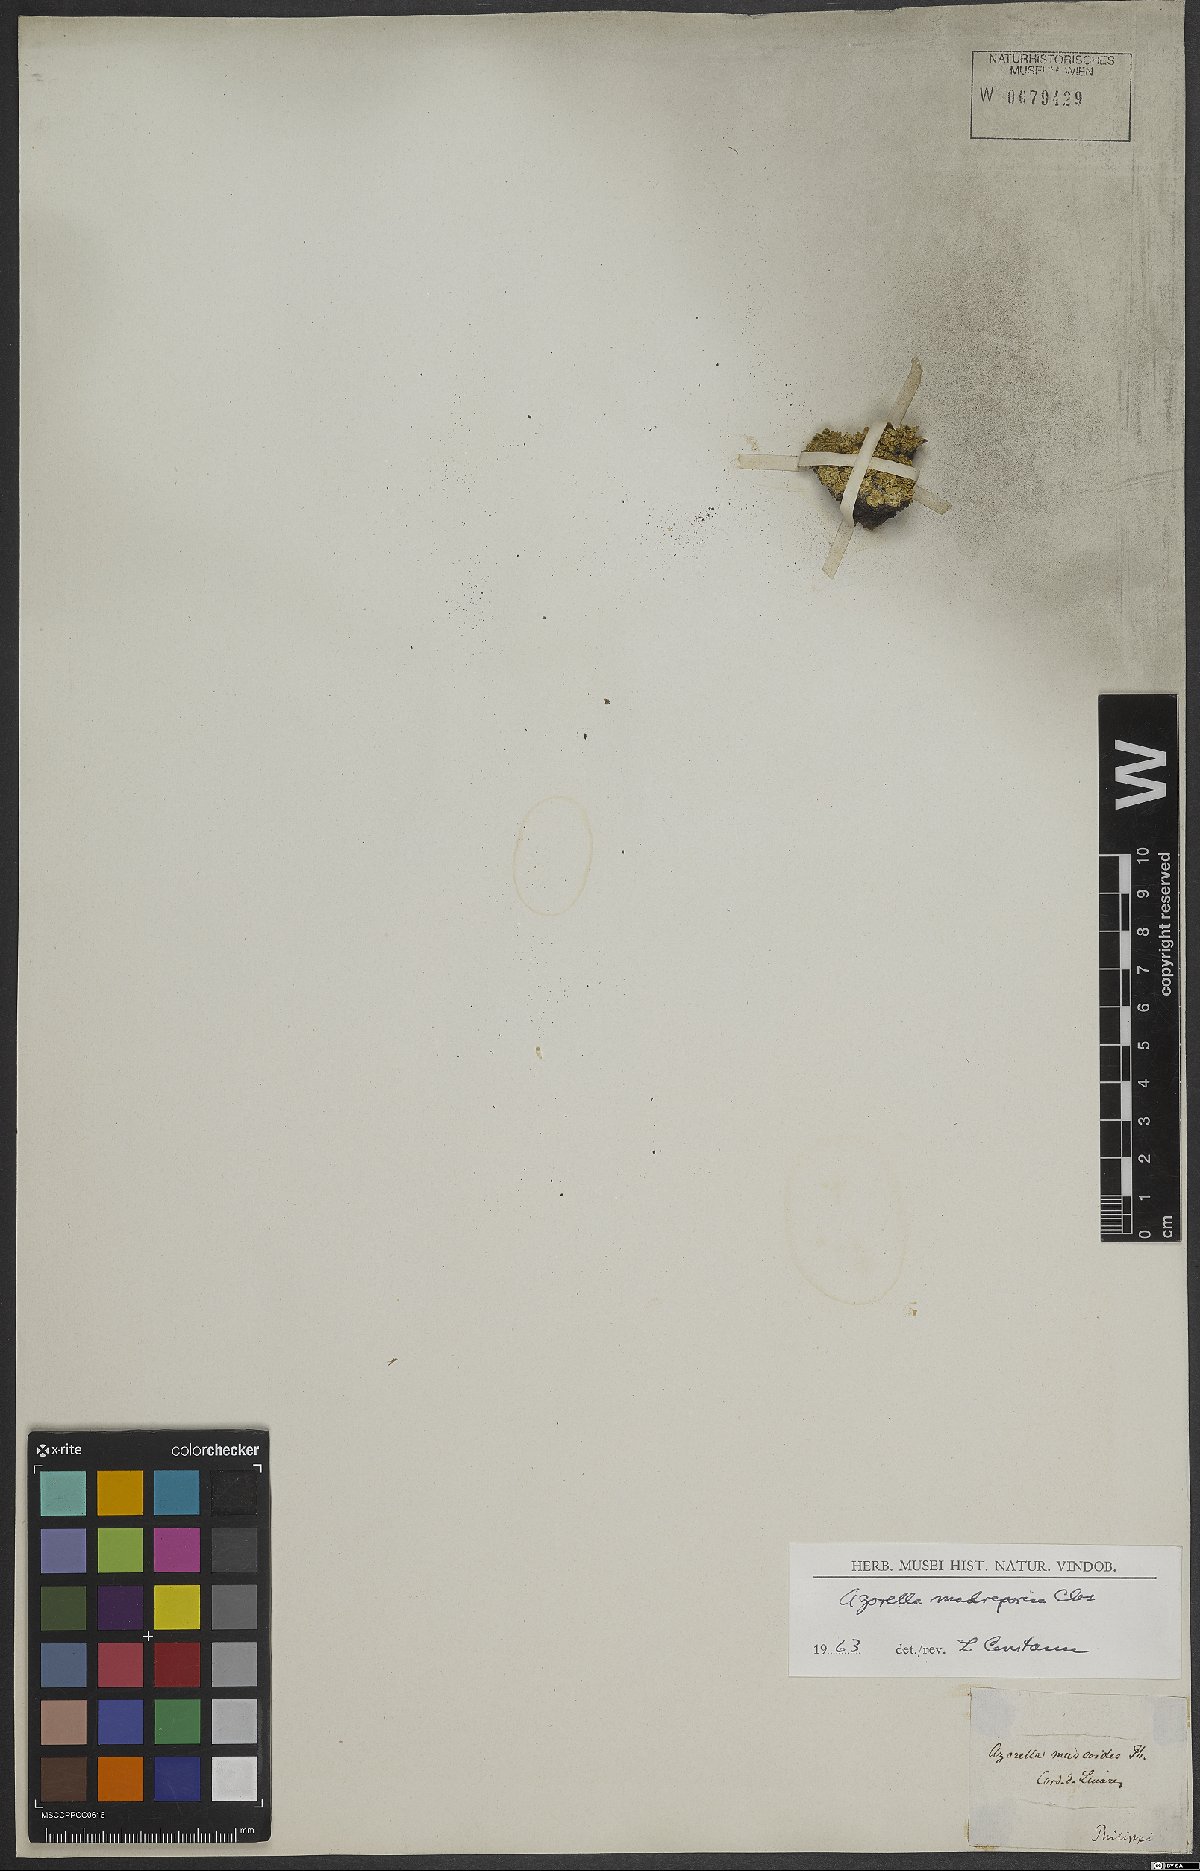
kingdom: Plantae
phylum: Tracheophyta
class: Magnoliopsida
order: Apiales
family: Apiaceae
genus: Azorella
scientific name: Azorella madreporica
